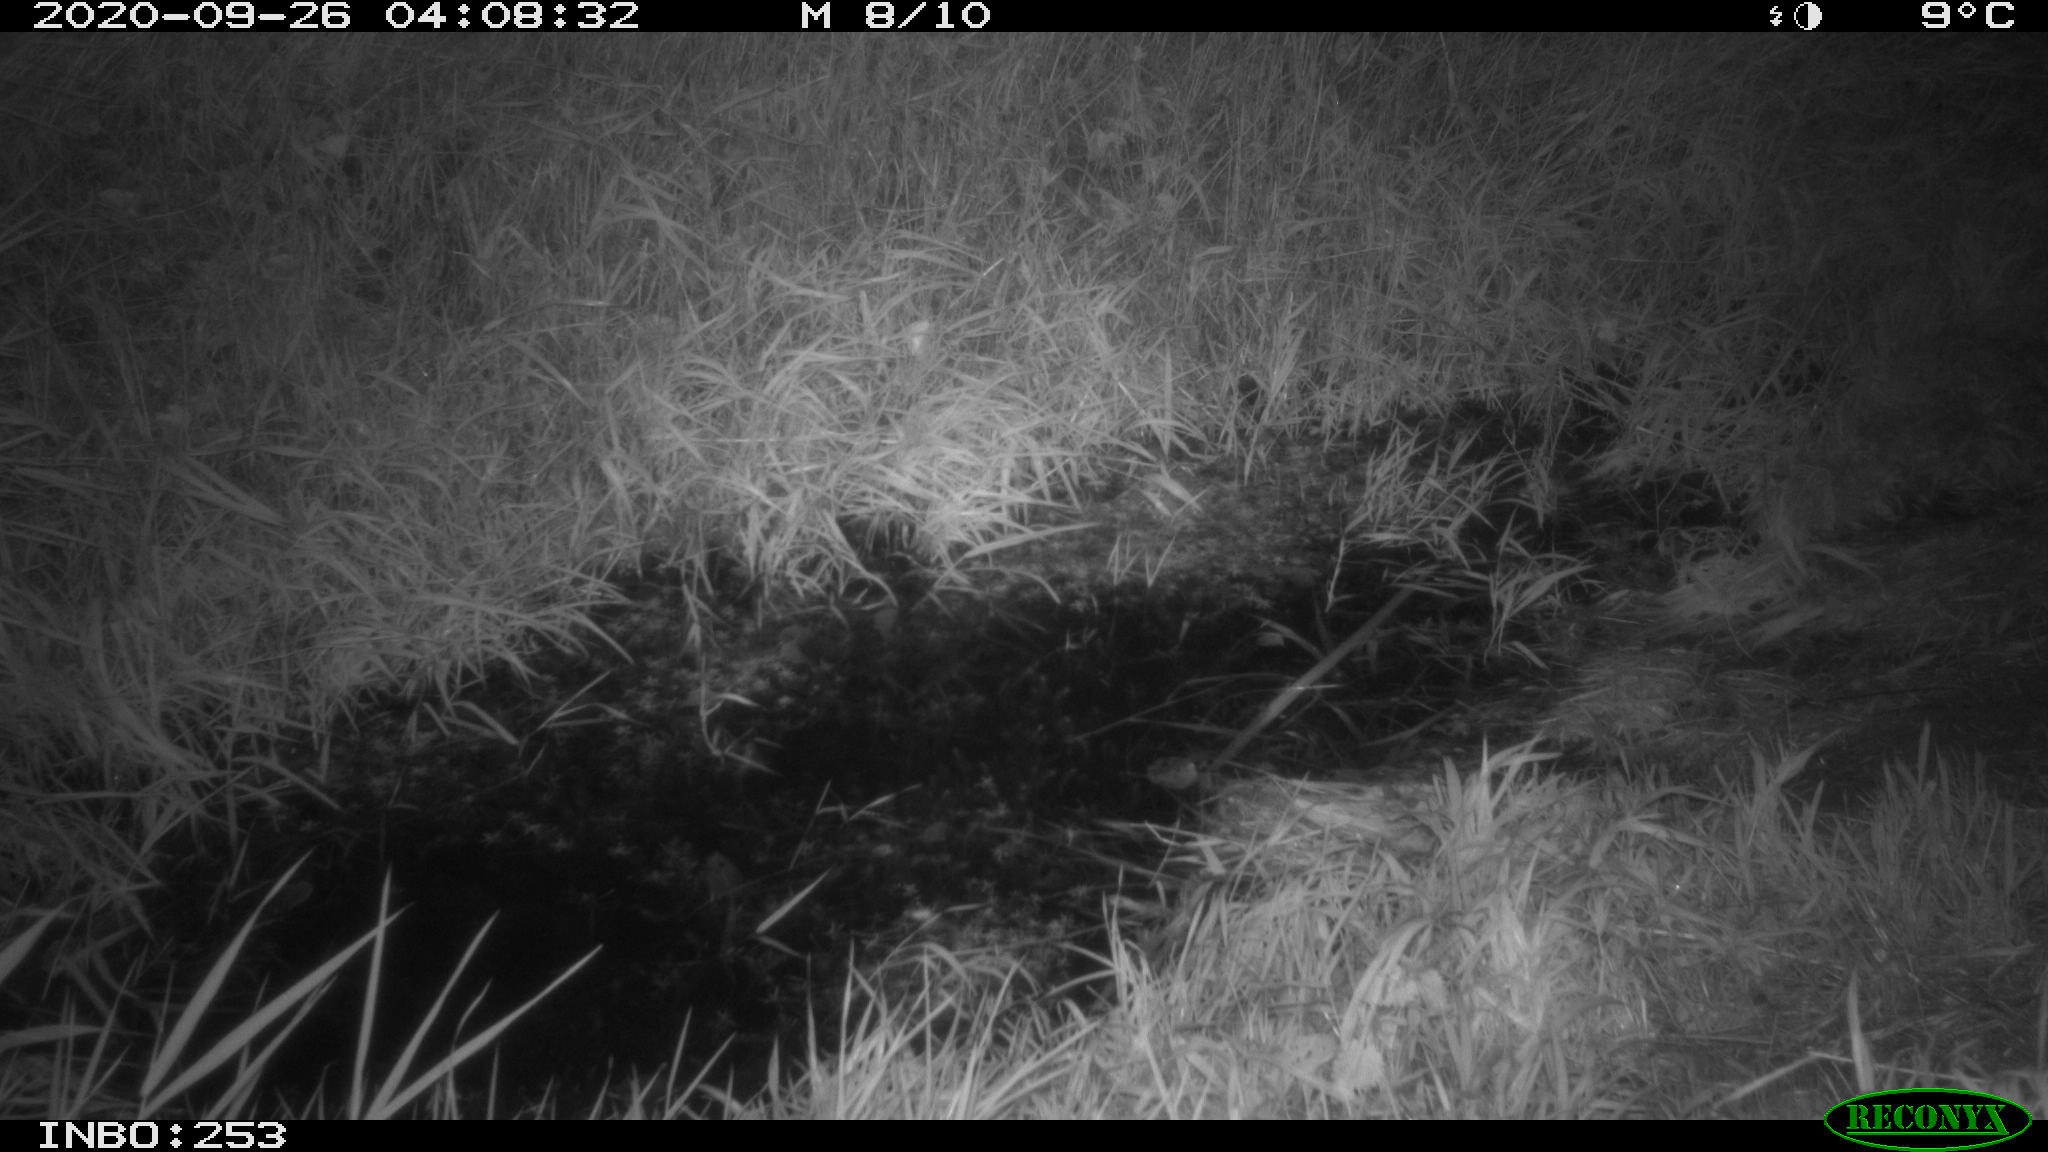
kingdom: Animalia
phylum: Chordata
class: Mammalia
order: Rodentia
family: Muridae
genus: Rattus
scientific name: Rattus norvegicus
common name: Brown rat
